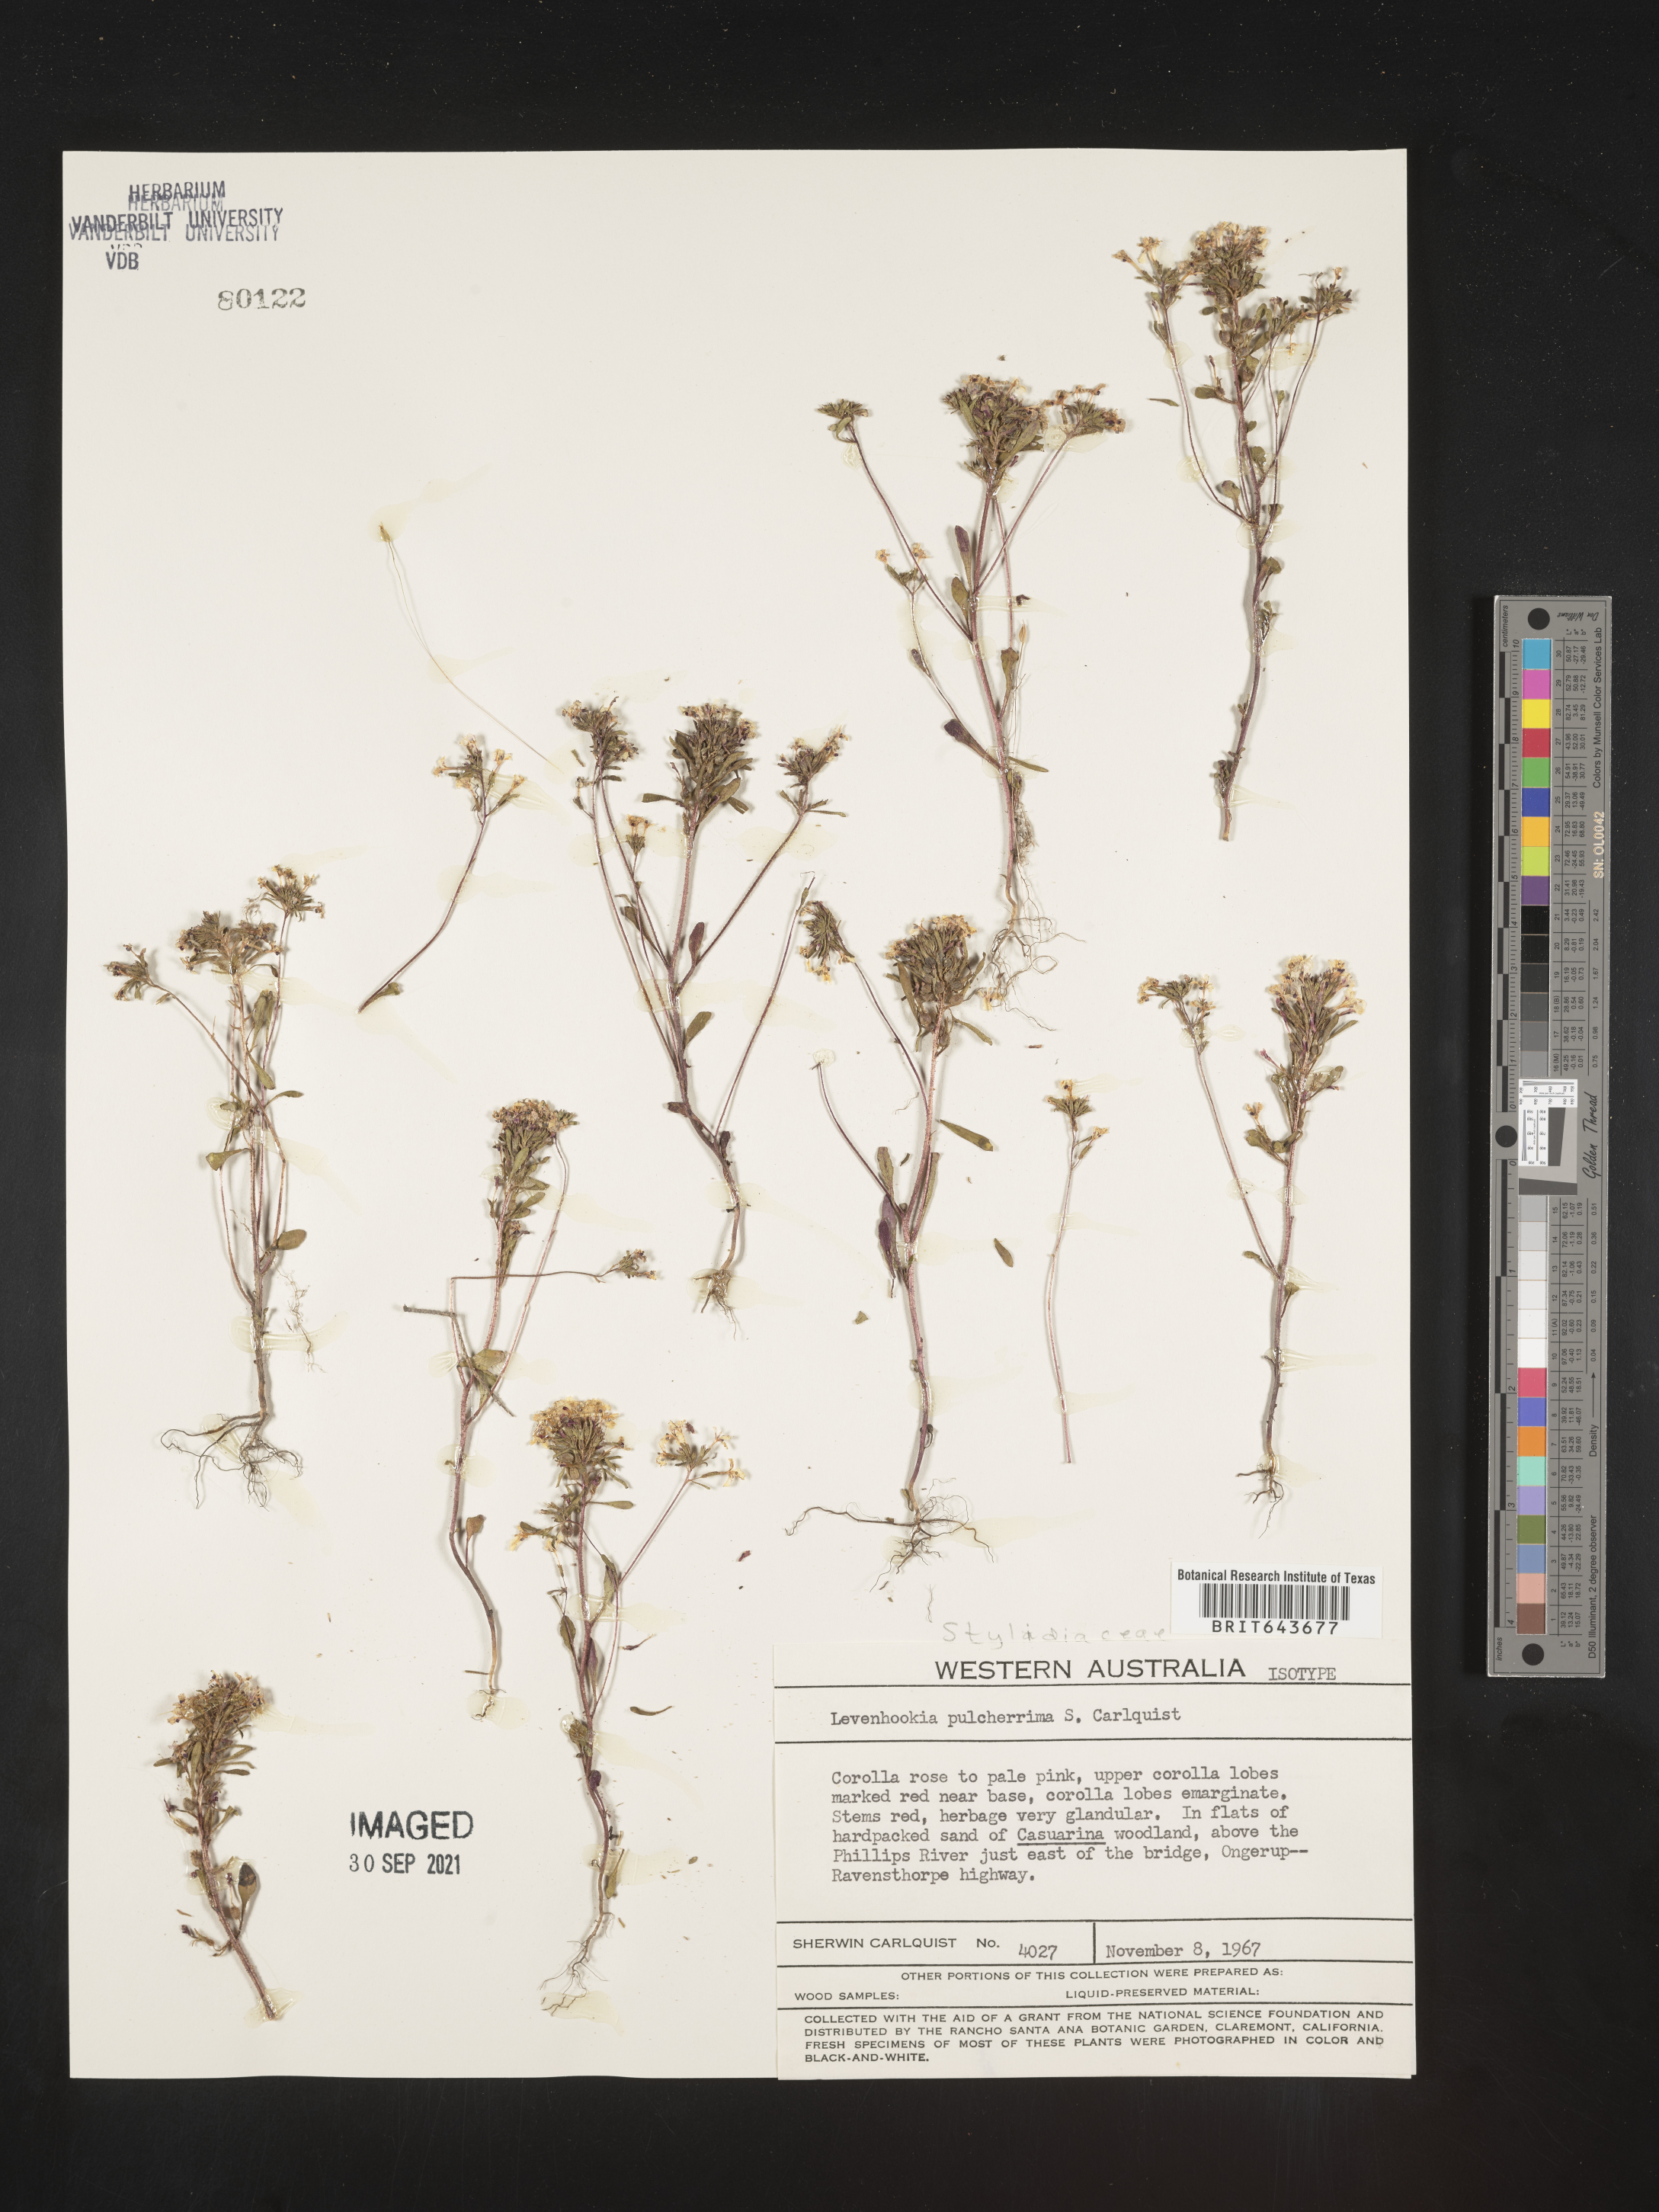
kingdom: Plantae
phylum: Tracheophyta
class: Magnoliopsida
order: Asterales
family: Stylidiaceae
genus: Levenhookia
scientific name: Levenhookia pulcherrima
